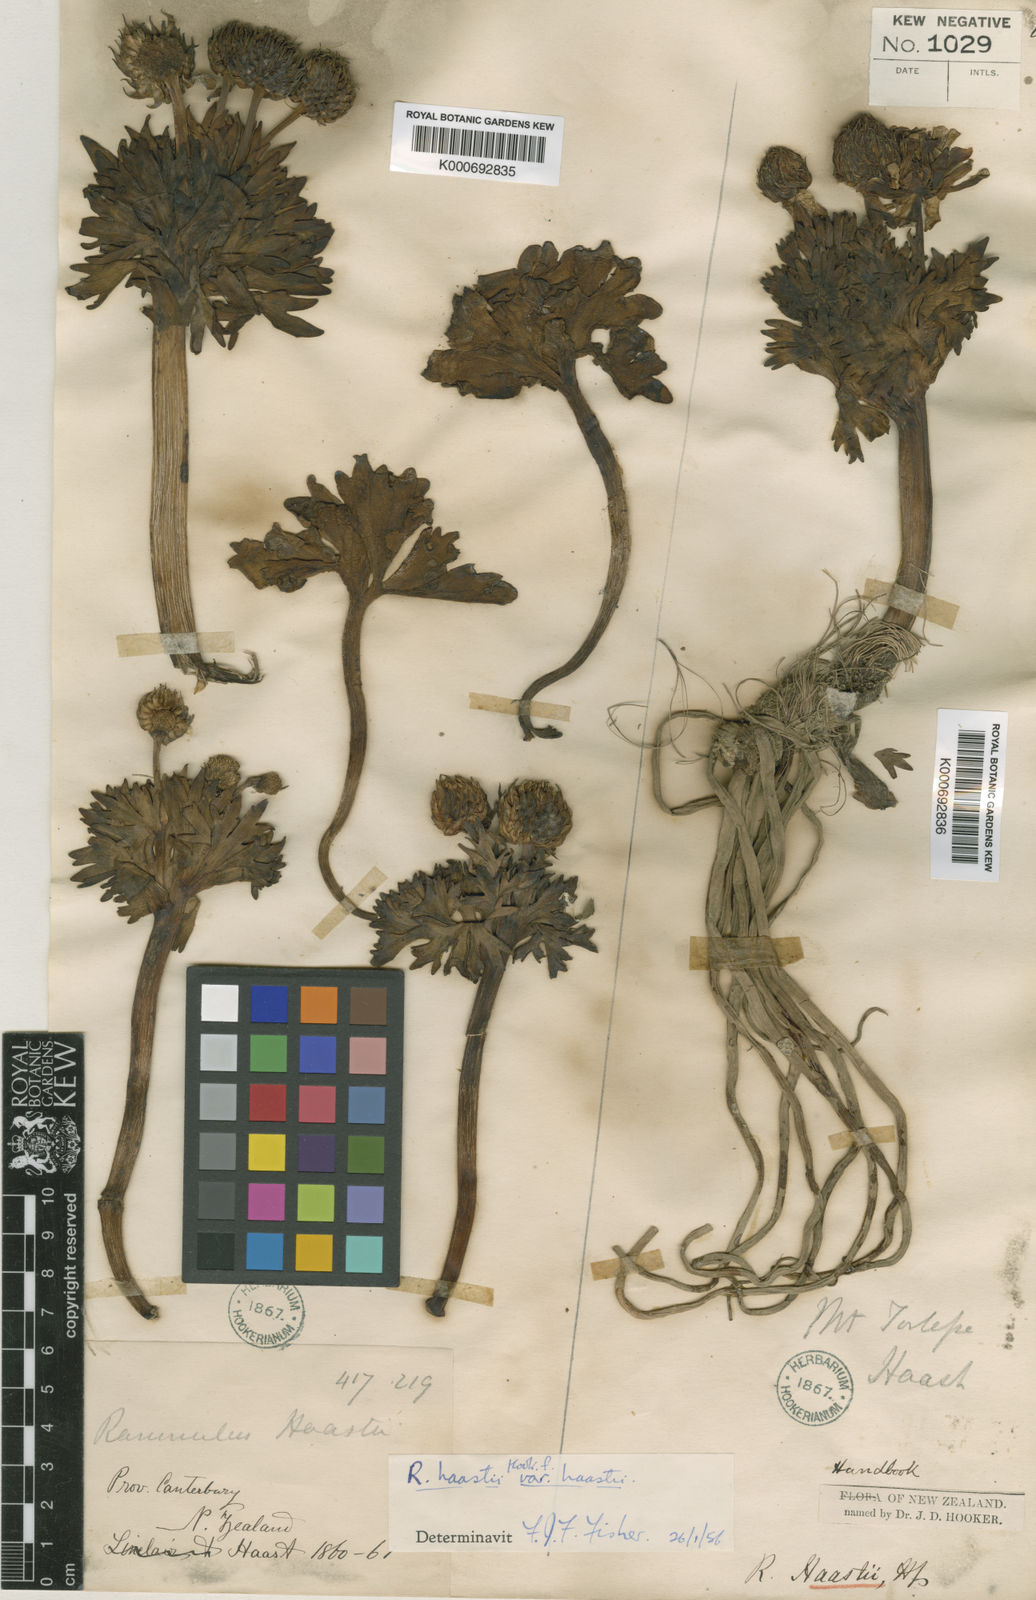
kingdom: Plantae
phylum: Tracheophyta
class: Magnoliopsida
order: Ranunculales
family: Ranunculaceae
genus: Ranunculus
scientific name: Ranunculus haastii
